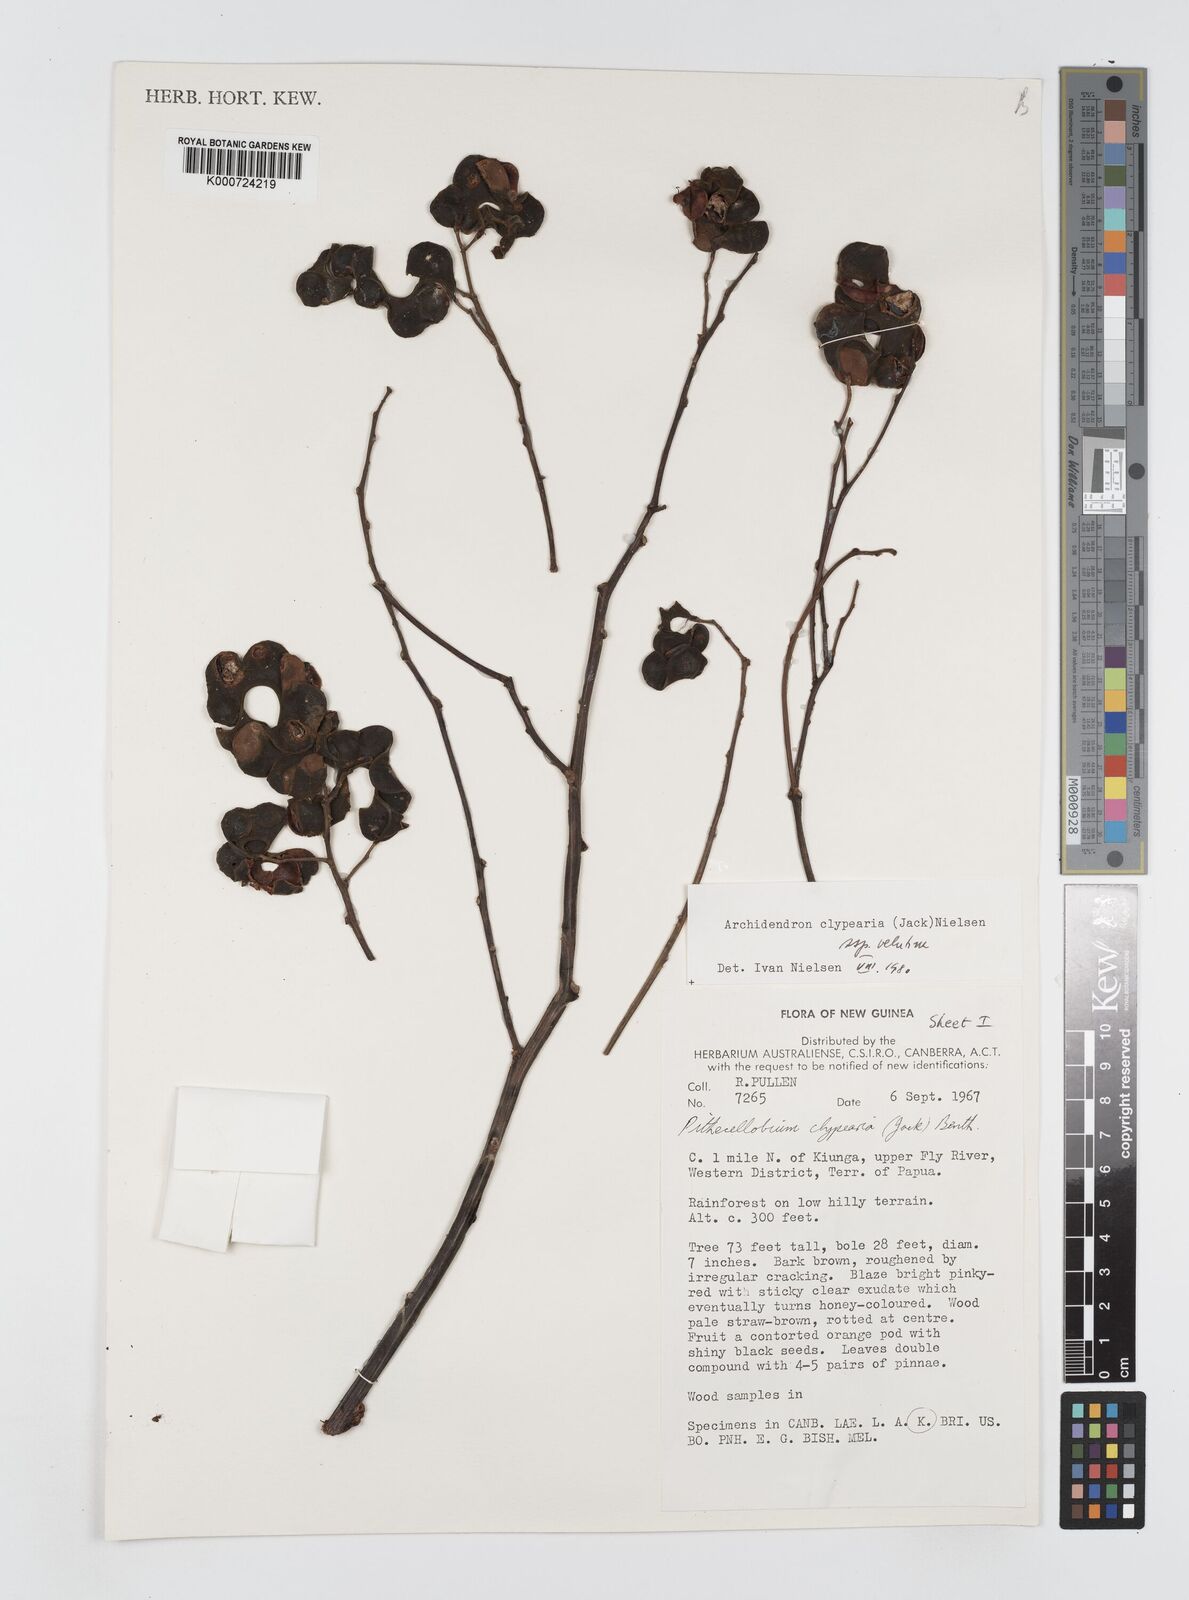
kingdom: Plantae
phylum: Tracheophyta
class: Magnoliopsida
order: Fabales
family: Fabaceae
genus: Archidendron
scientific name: Archidendron clypearia
